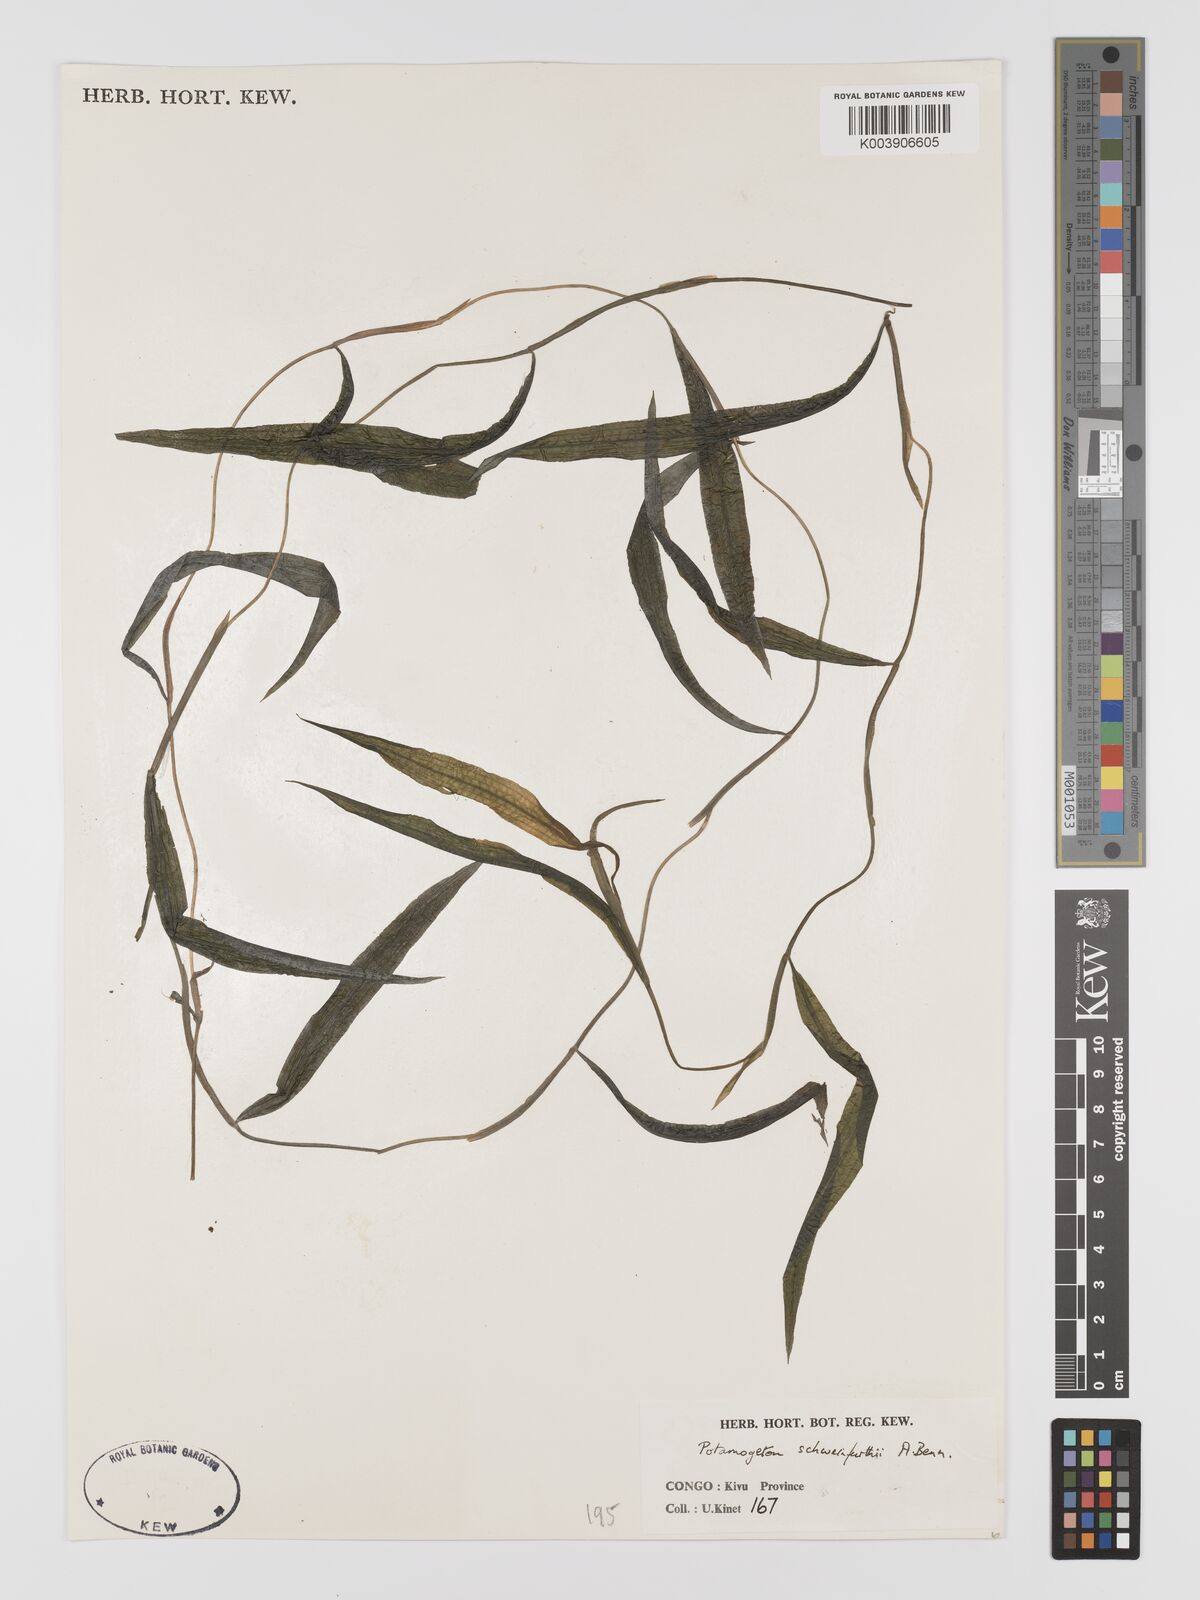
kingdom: Plantae
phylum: Tracheophyta
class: Liliopsida
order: Alismatales
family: Potamogetonaceae
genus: Potamogeton
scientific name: Potamogeton schweinfurthii
